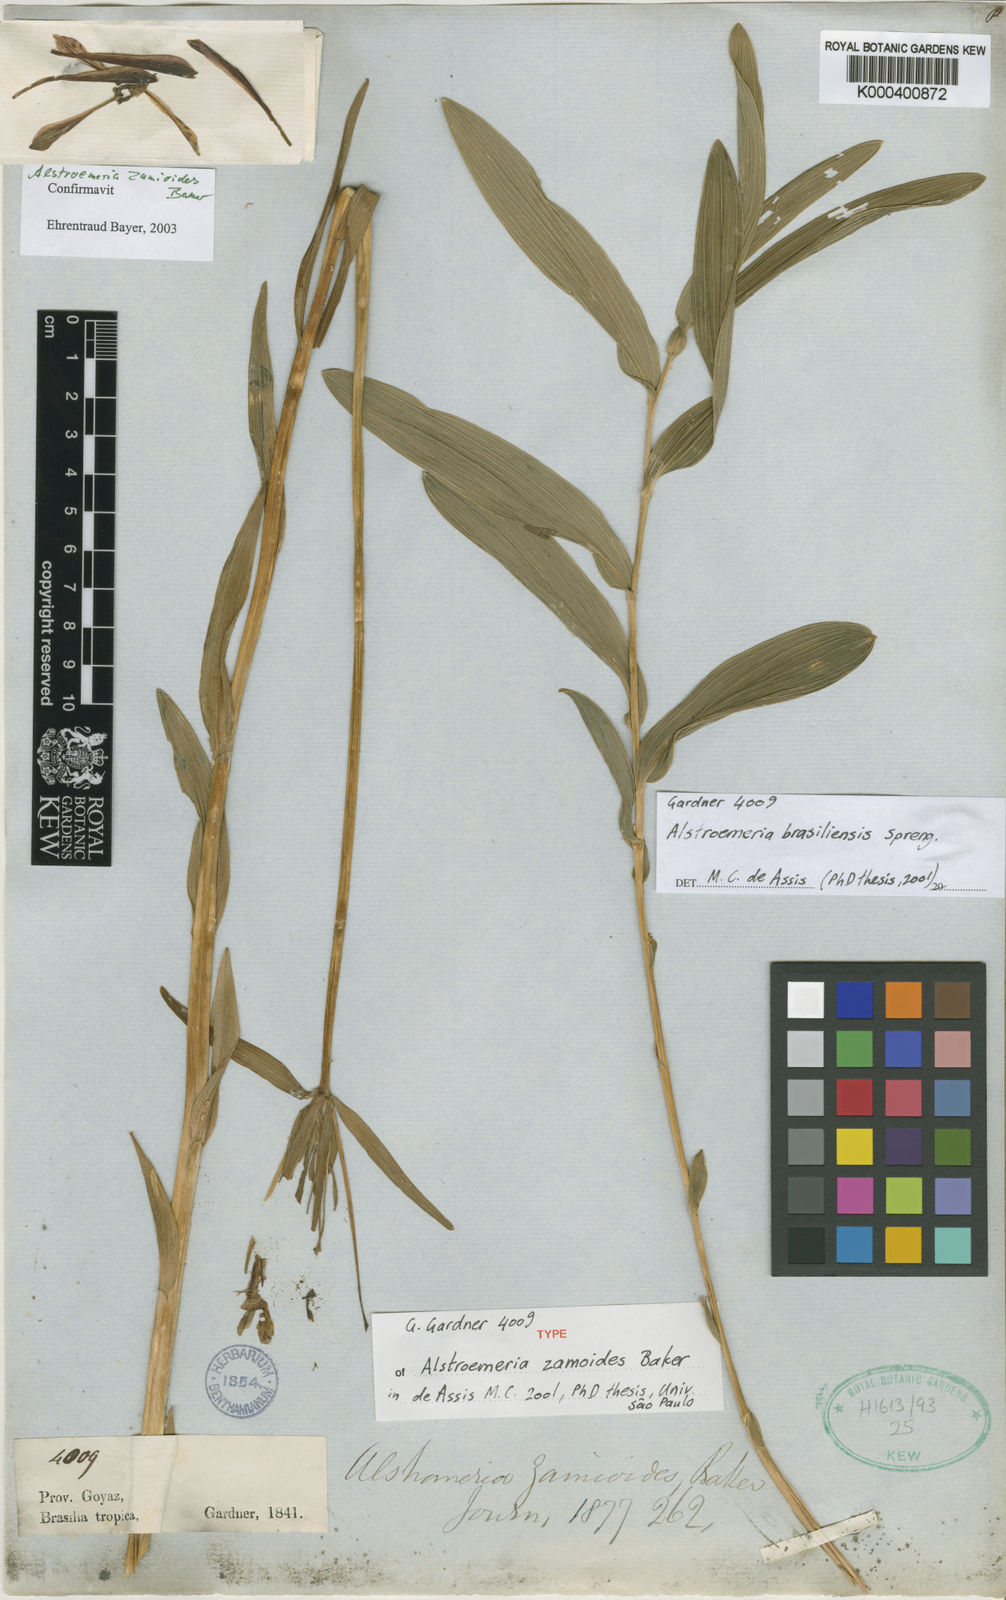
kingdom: Plantae
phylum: Tracheophyta
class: Liliopsida
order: Liliales
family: Alstroemeriaceae
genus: Alstroemeria
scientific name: Alstroemeria brasiliensis
